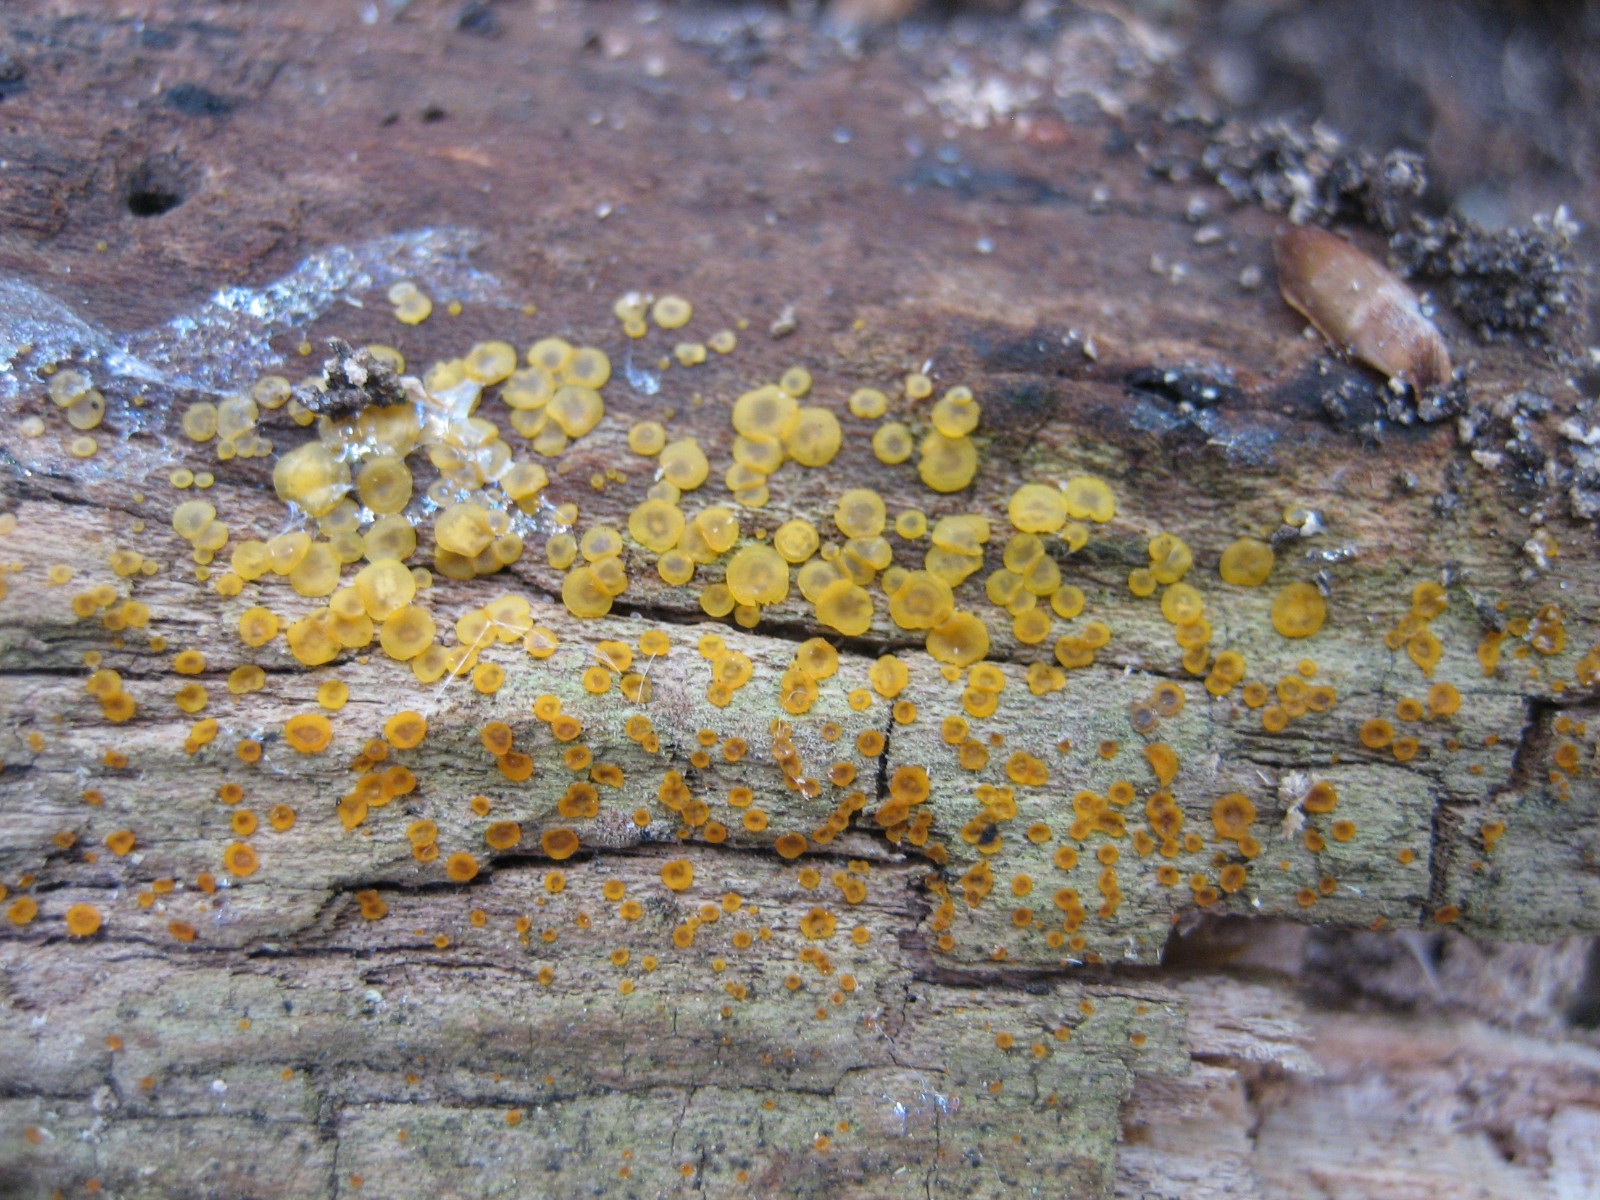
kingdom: Fungi
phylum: Ascomycota
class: Orbiliomycetes
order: Orbiliales
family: Orbiliaceae
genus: Orbilia
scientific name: Orbilia xanthostigma
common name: krumsporet voksskive
